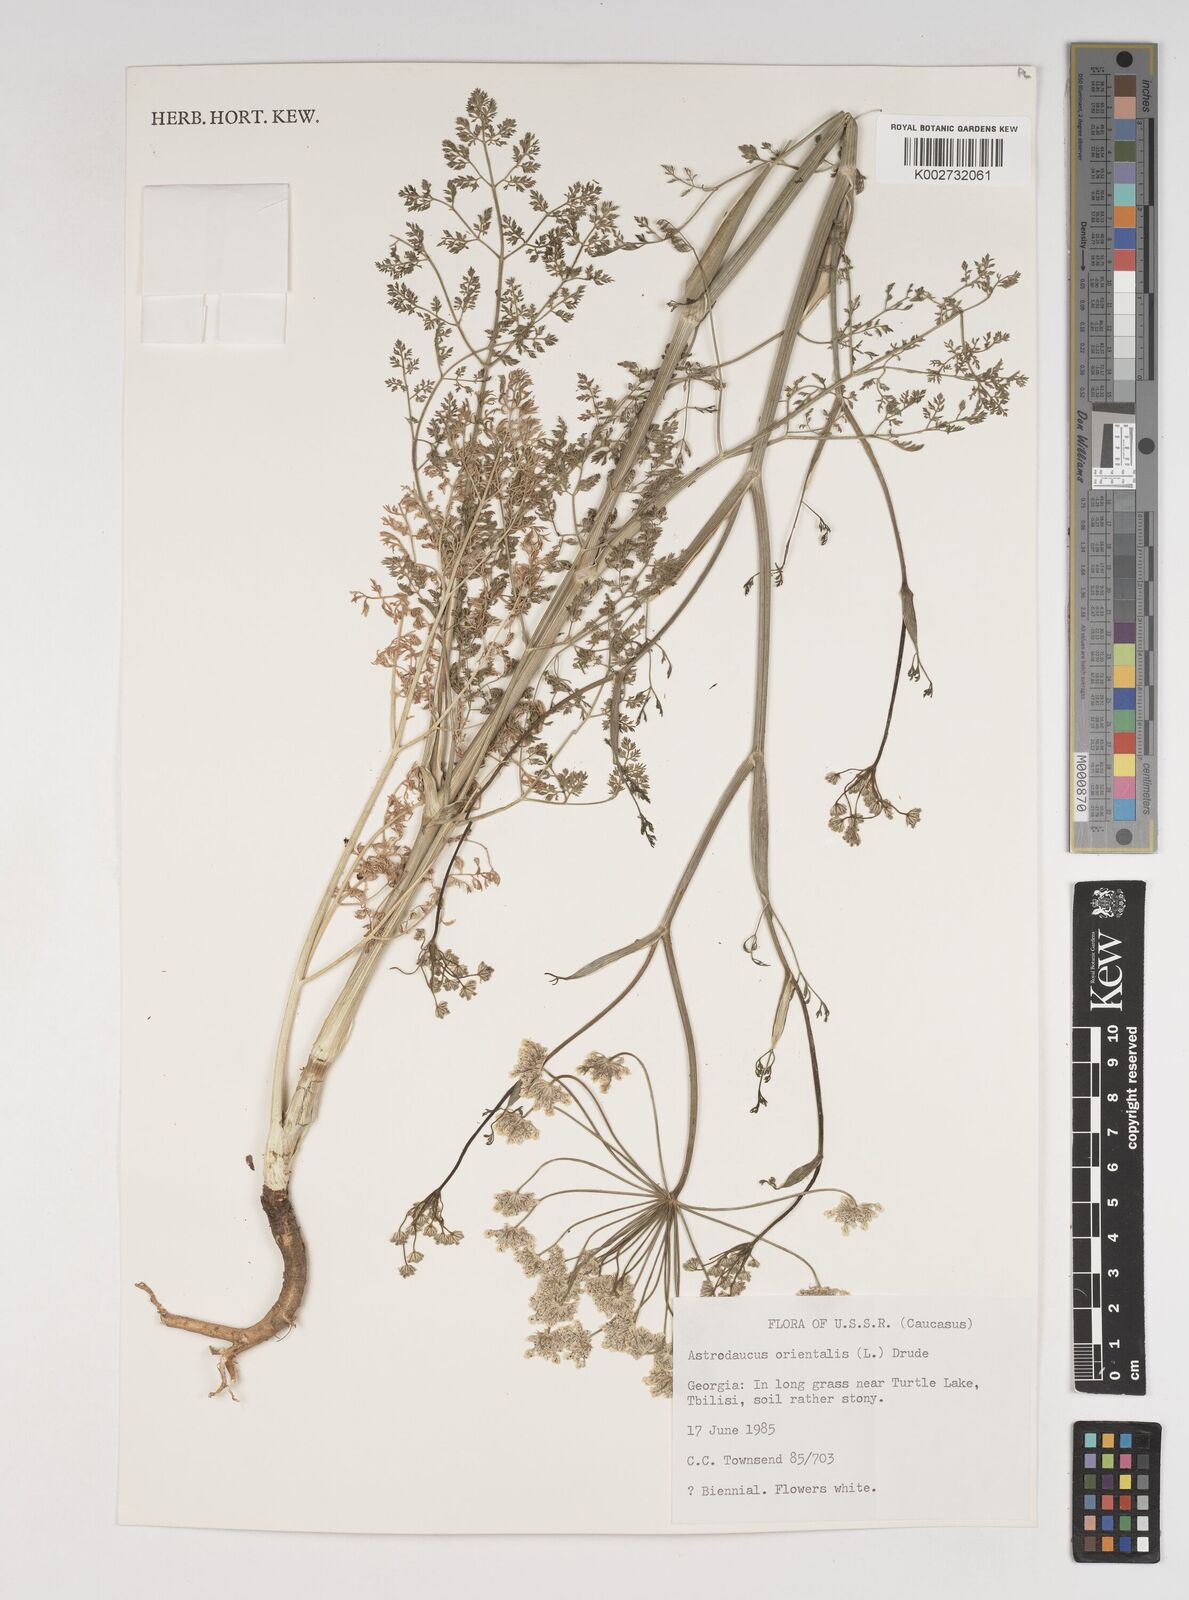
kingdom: Plantae
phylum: Tracheophyta
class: Magnoliopsida
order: Apiales
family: Apiaceae
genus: Astrodaucus
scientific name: Astrodaucus orientalis
